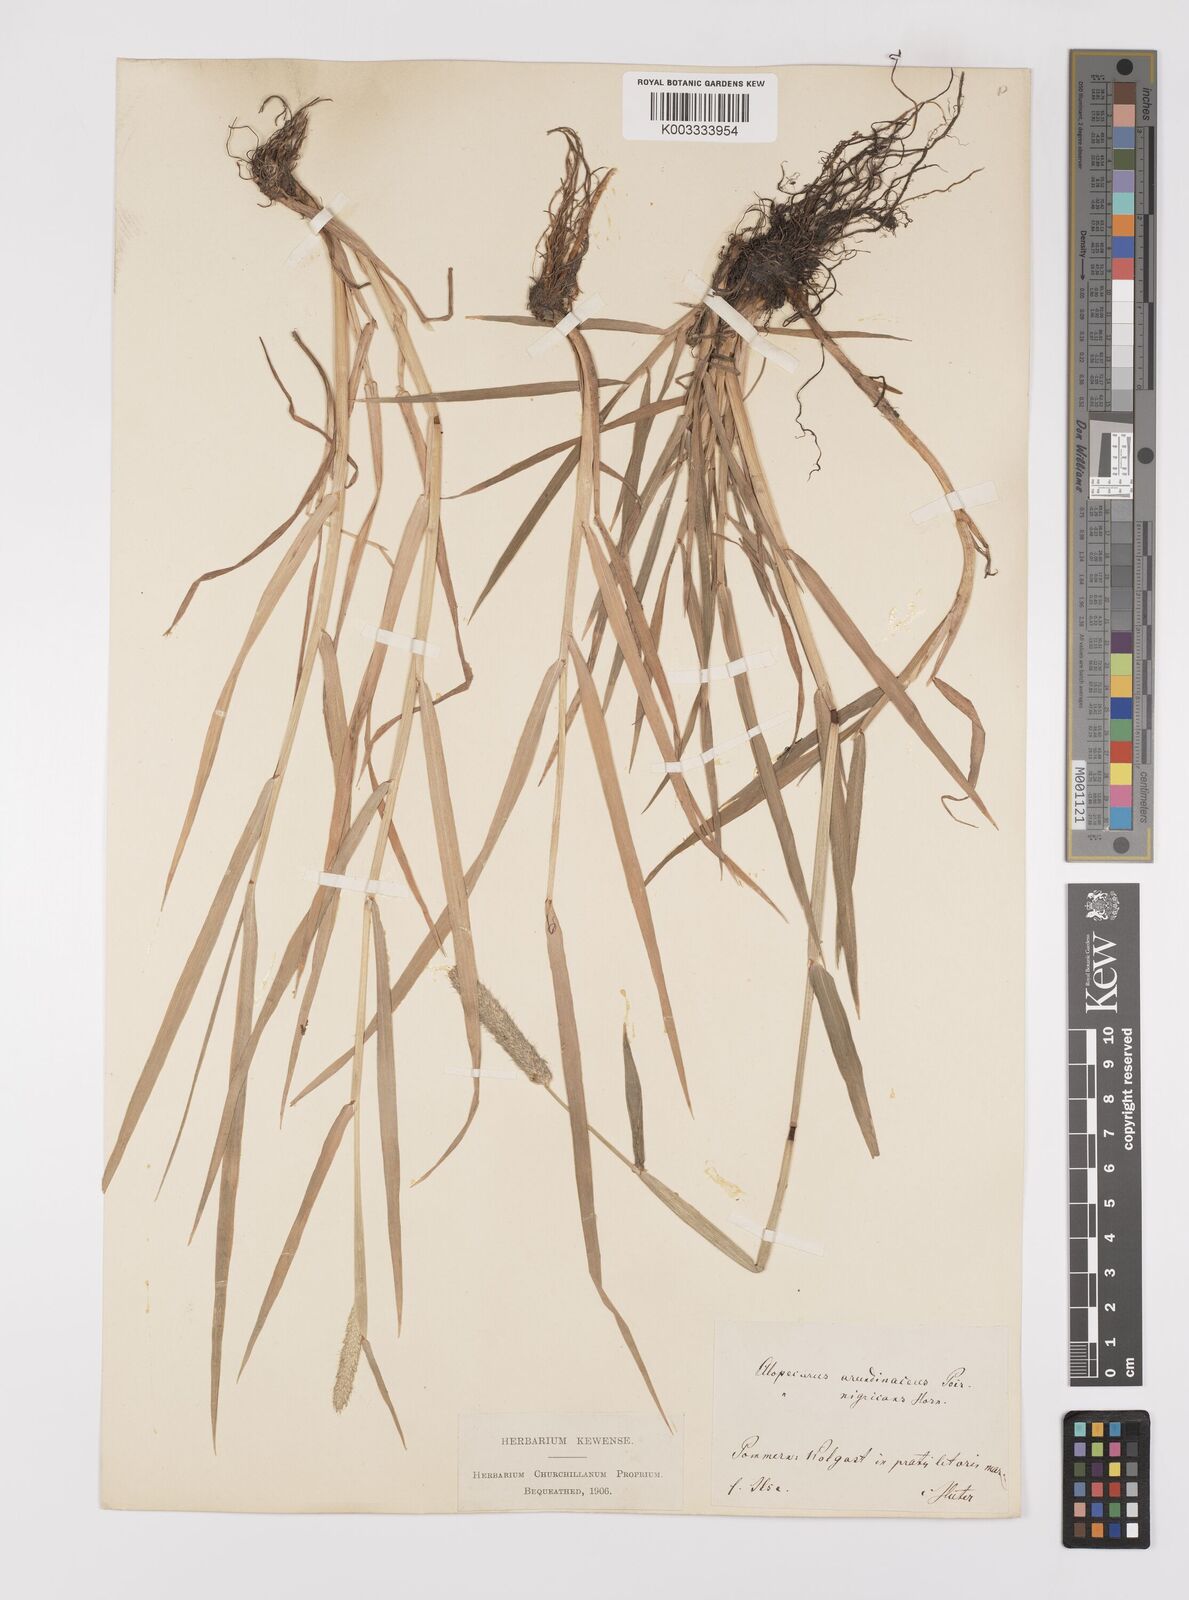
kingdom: Plantae
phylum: Tracheophyta
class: Liliopsida
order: Poales
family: Poaceae
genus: Alopecurus
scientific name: Alopecurus arundinaceus
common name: Creeping meadow foxtail
